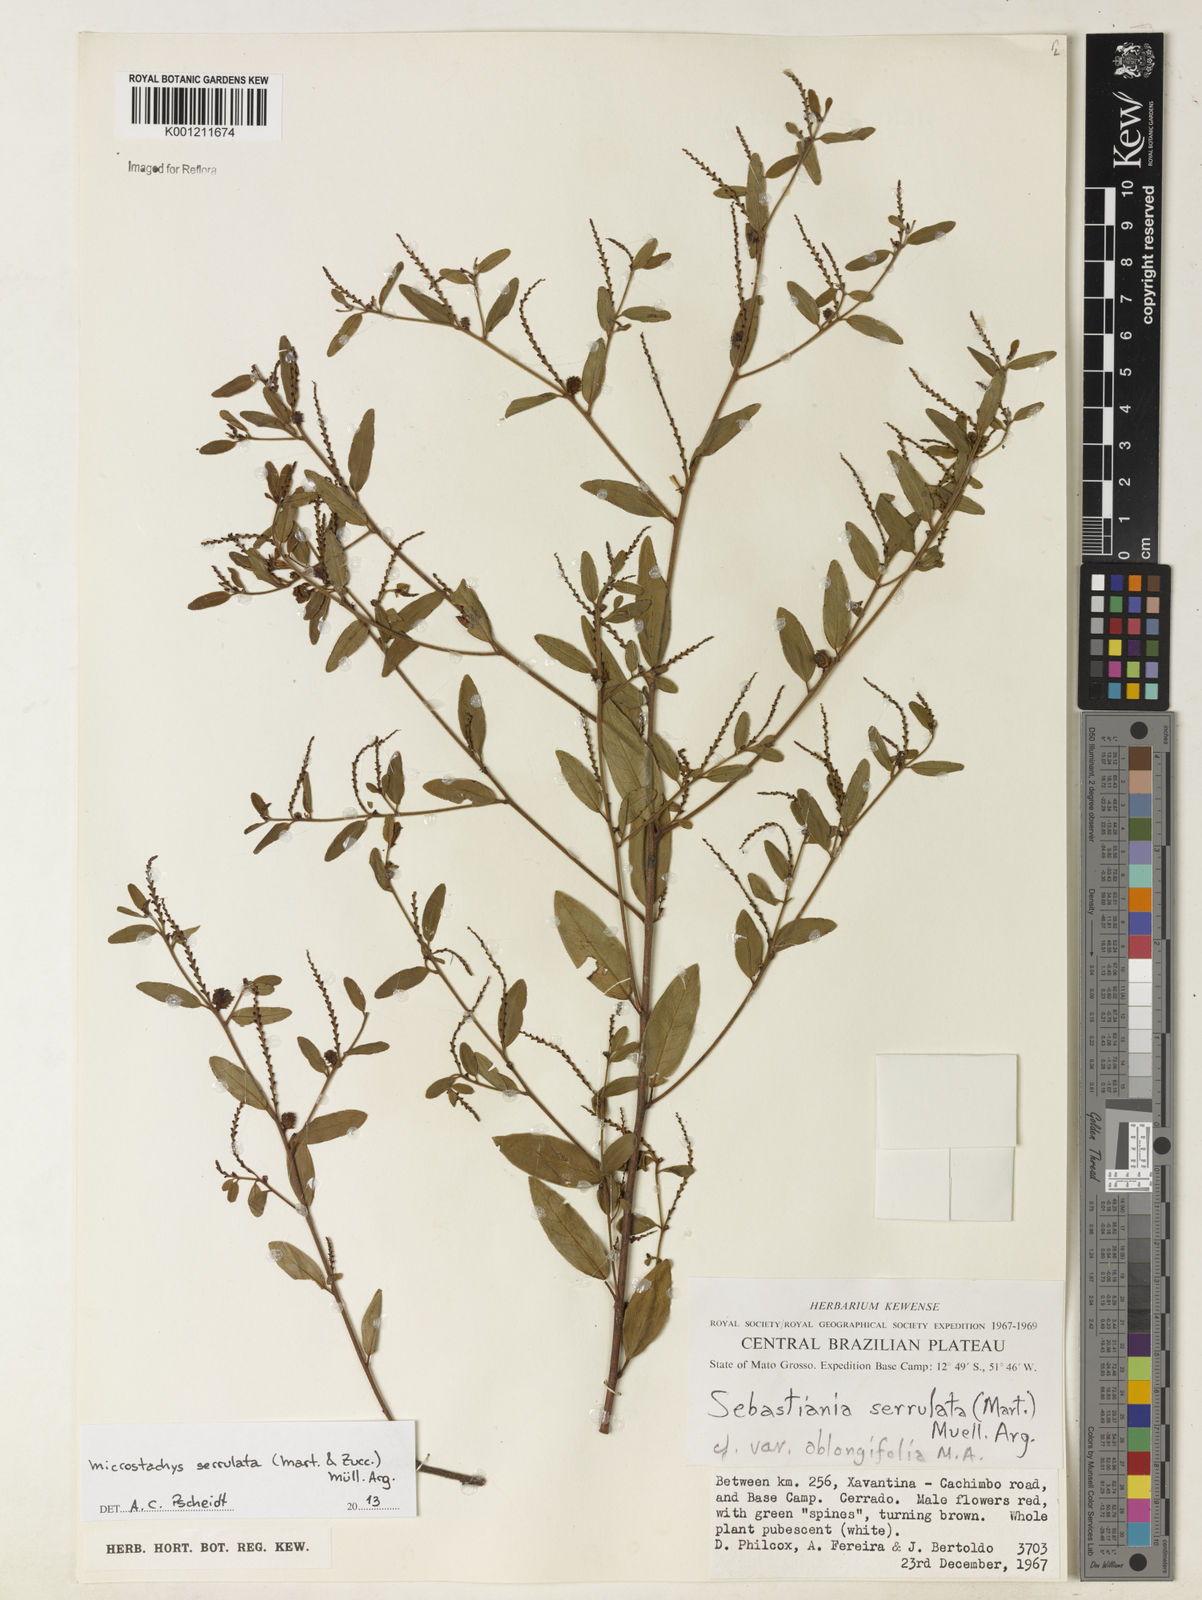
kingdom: Plantae
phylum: Tracheophyta
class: Magnoliopsida
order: Malpighiales
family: Euphorbiaceae
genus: Microstachys
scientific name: Microstachys
